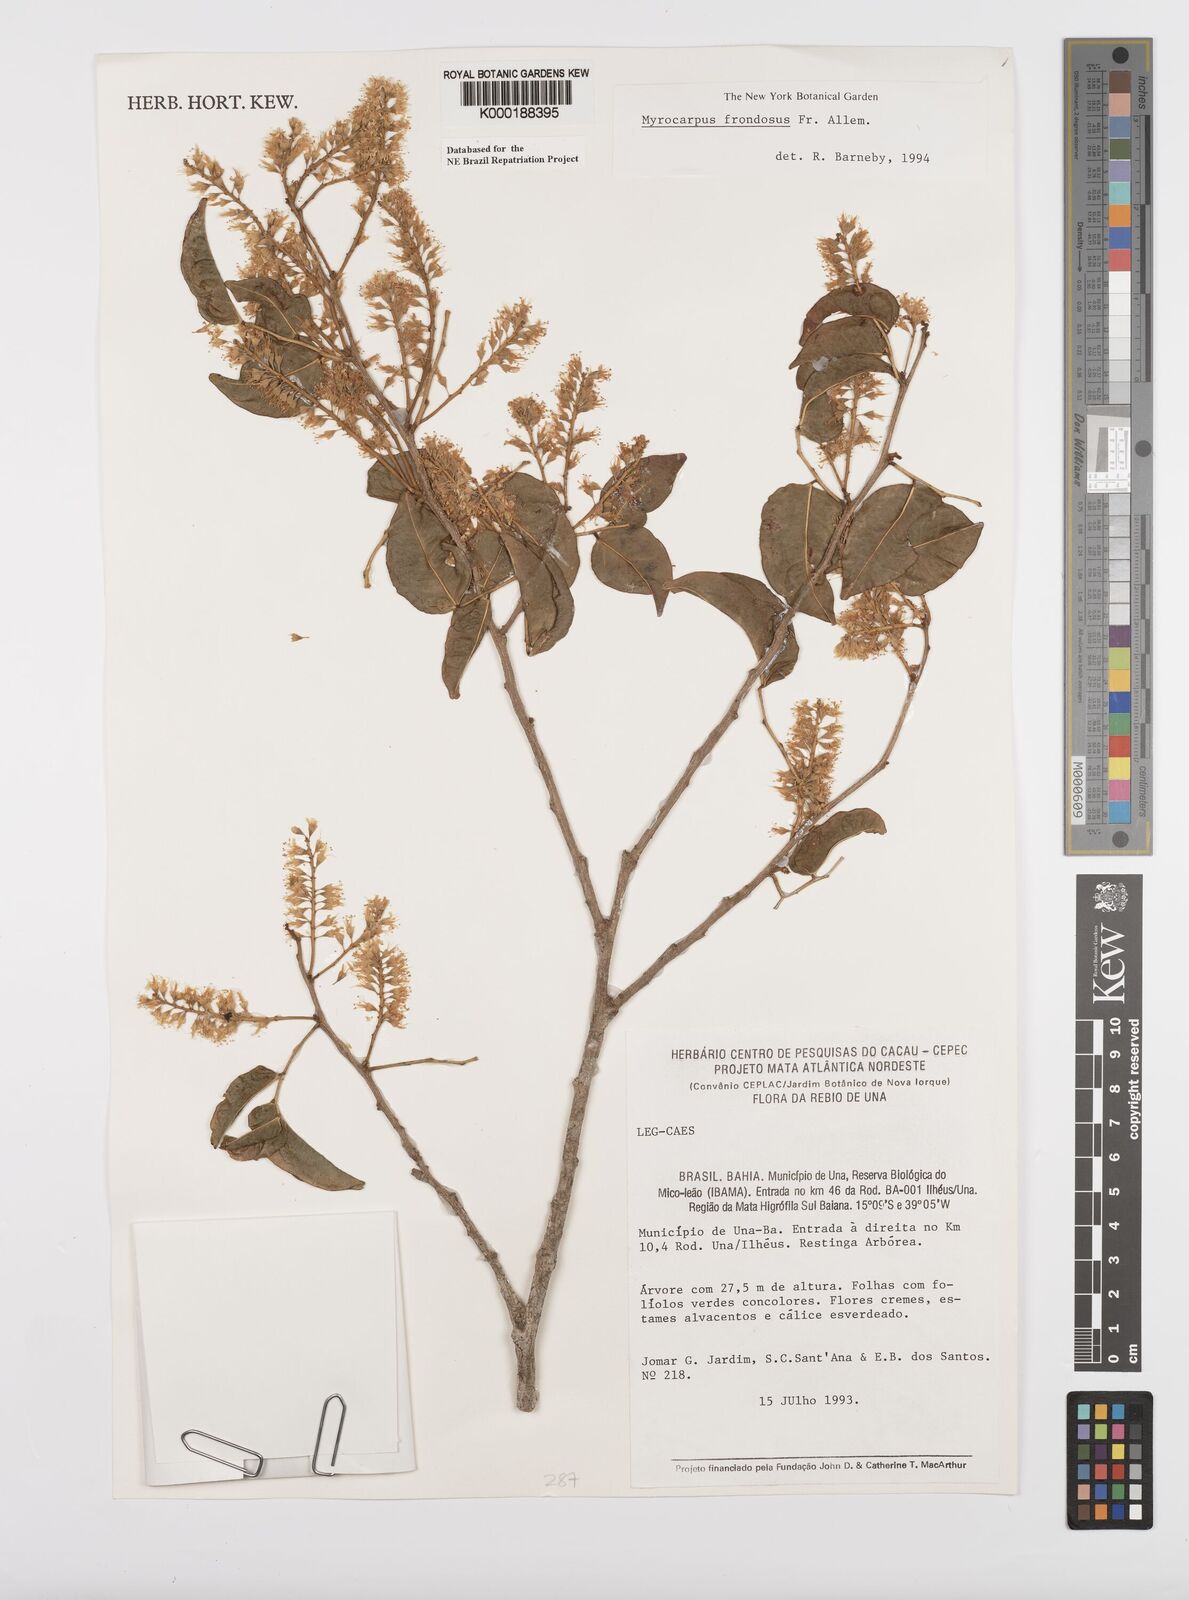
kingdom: Plantae
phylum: Tracheophyta
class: Magnoliopsida
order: Fabales
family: Fabaceae
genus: Myrocarpus
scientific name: Myrocarpus frondosus
